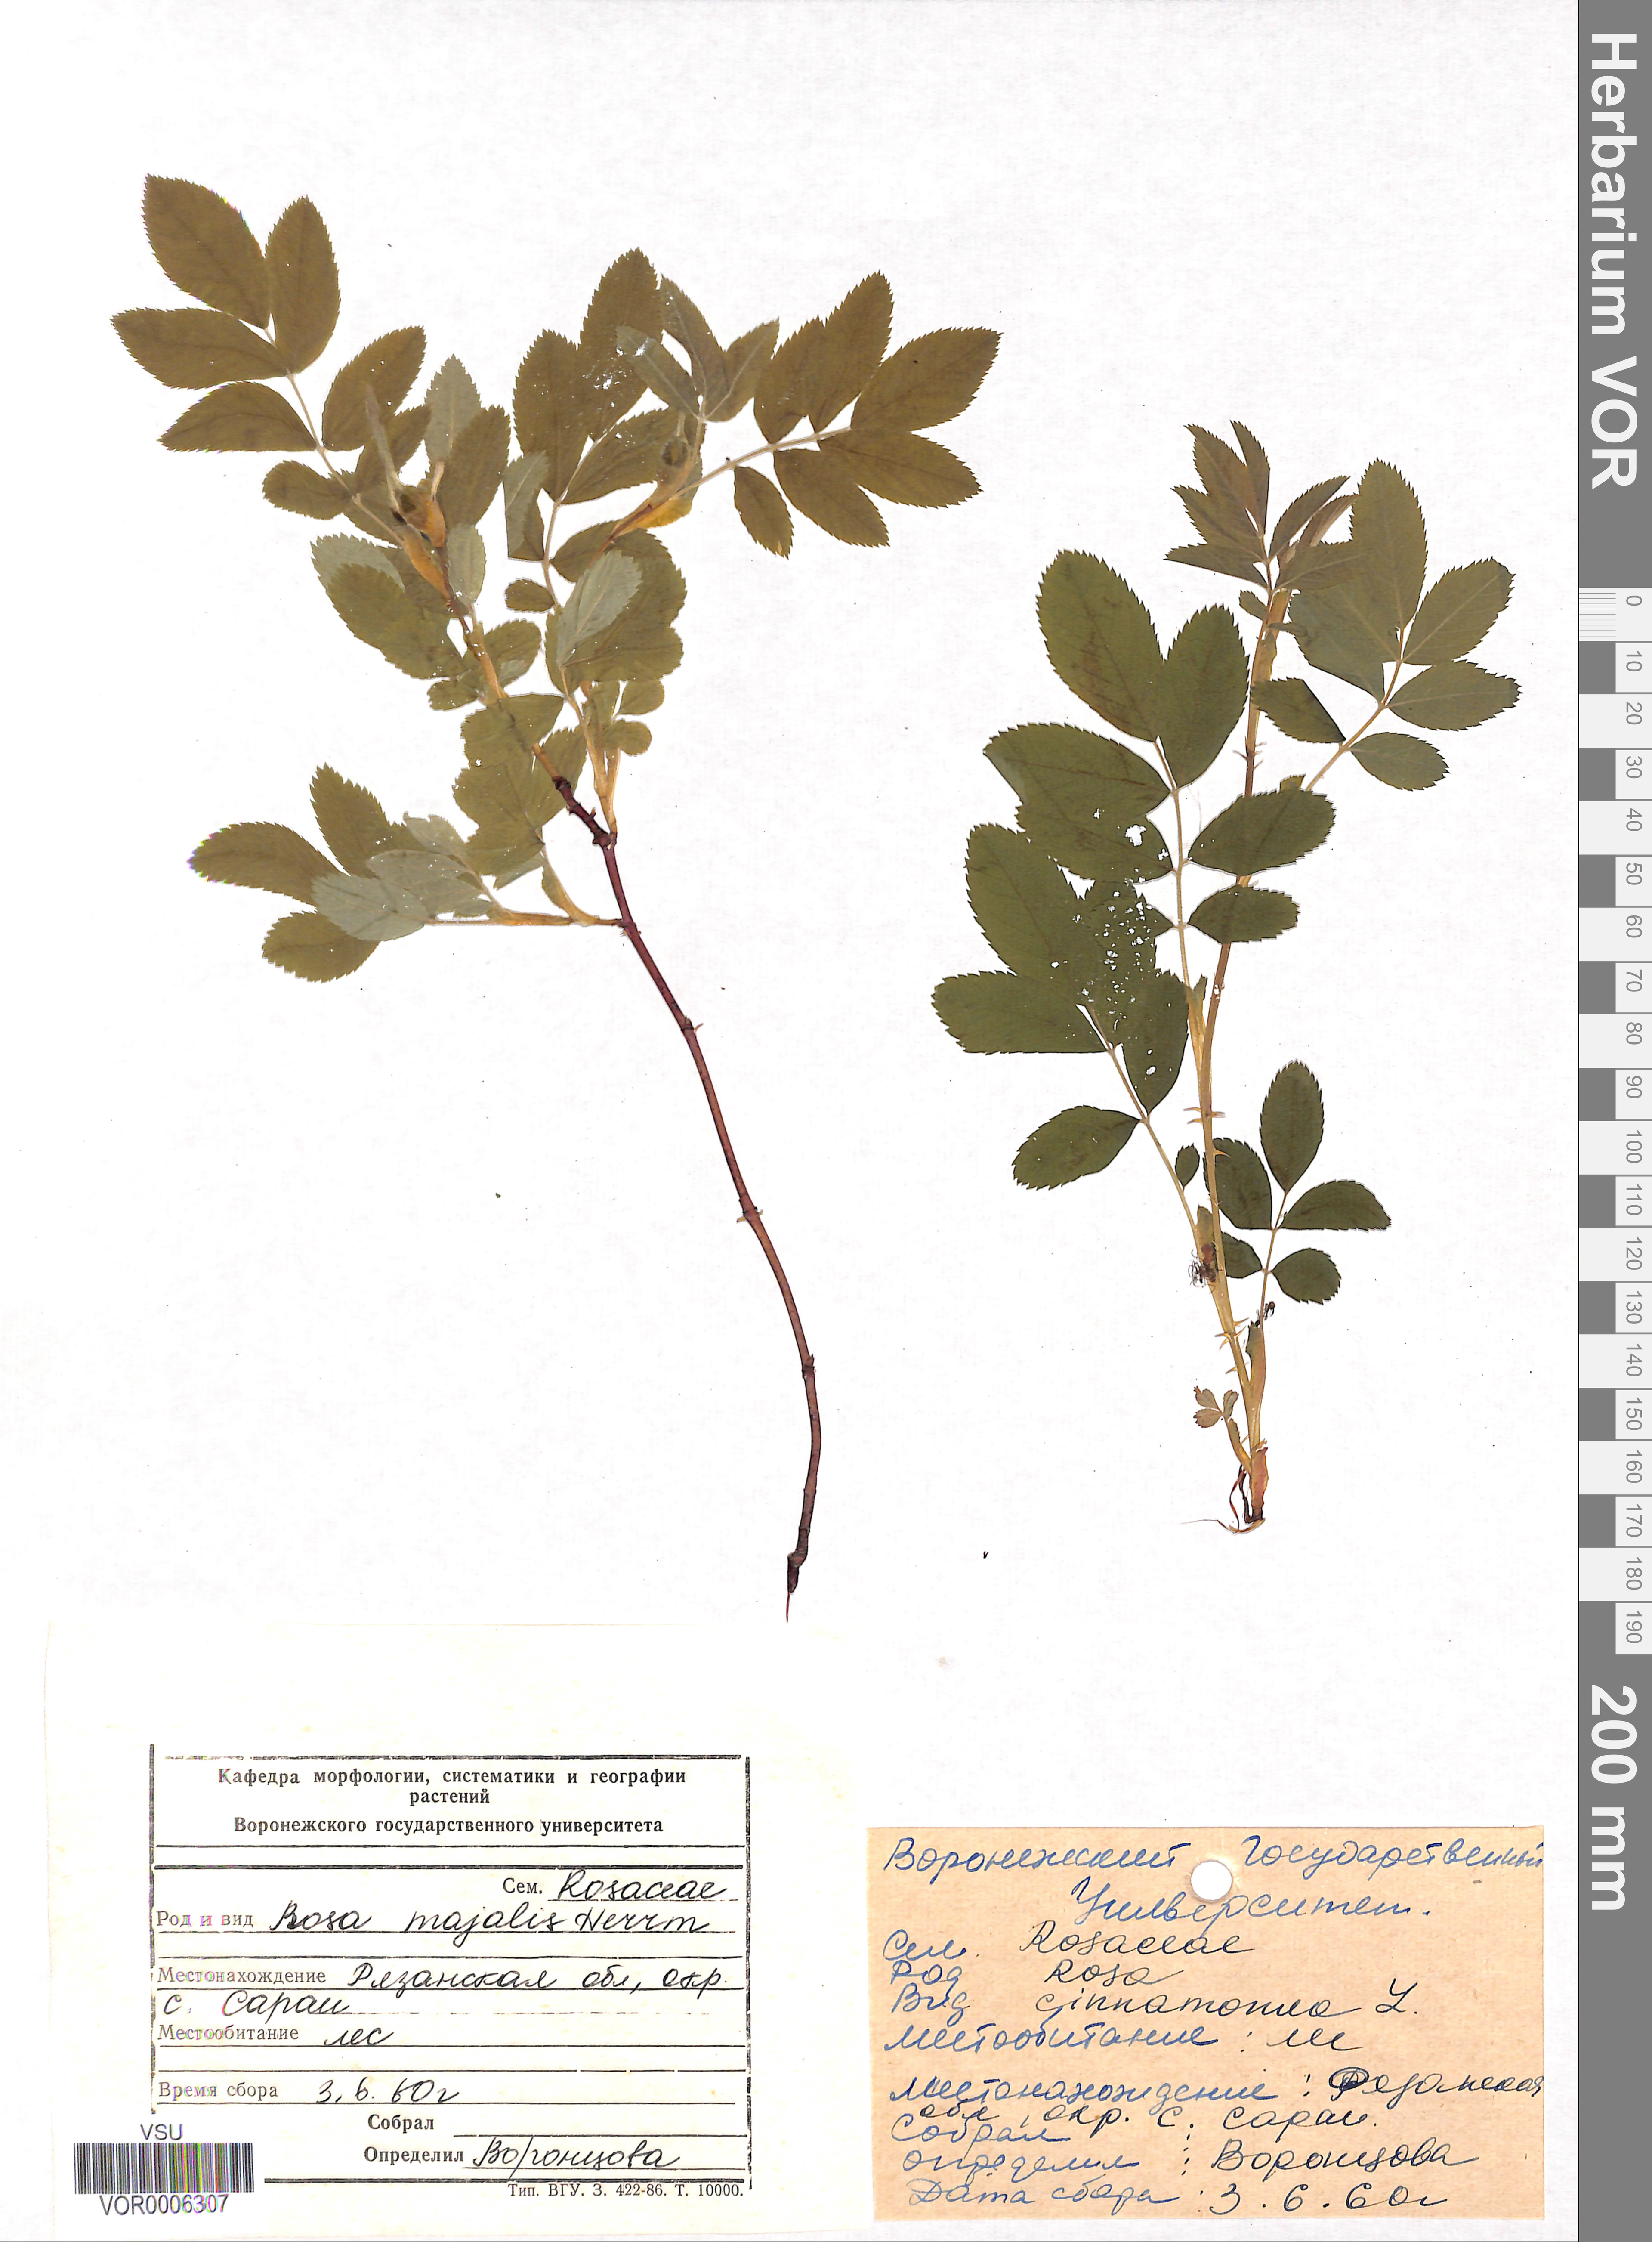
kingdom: Plantae
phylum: Tracheophyta
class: Magnoliopsida
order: Rosales
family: Rosaceae
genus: Rosa
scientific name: Rosa majalis
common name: Cinnamon rose
